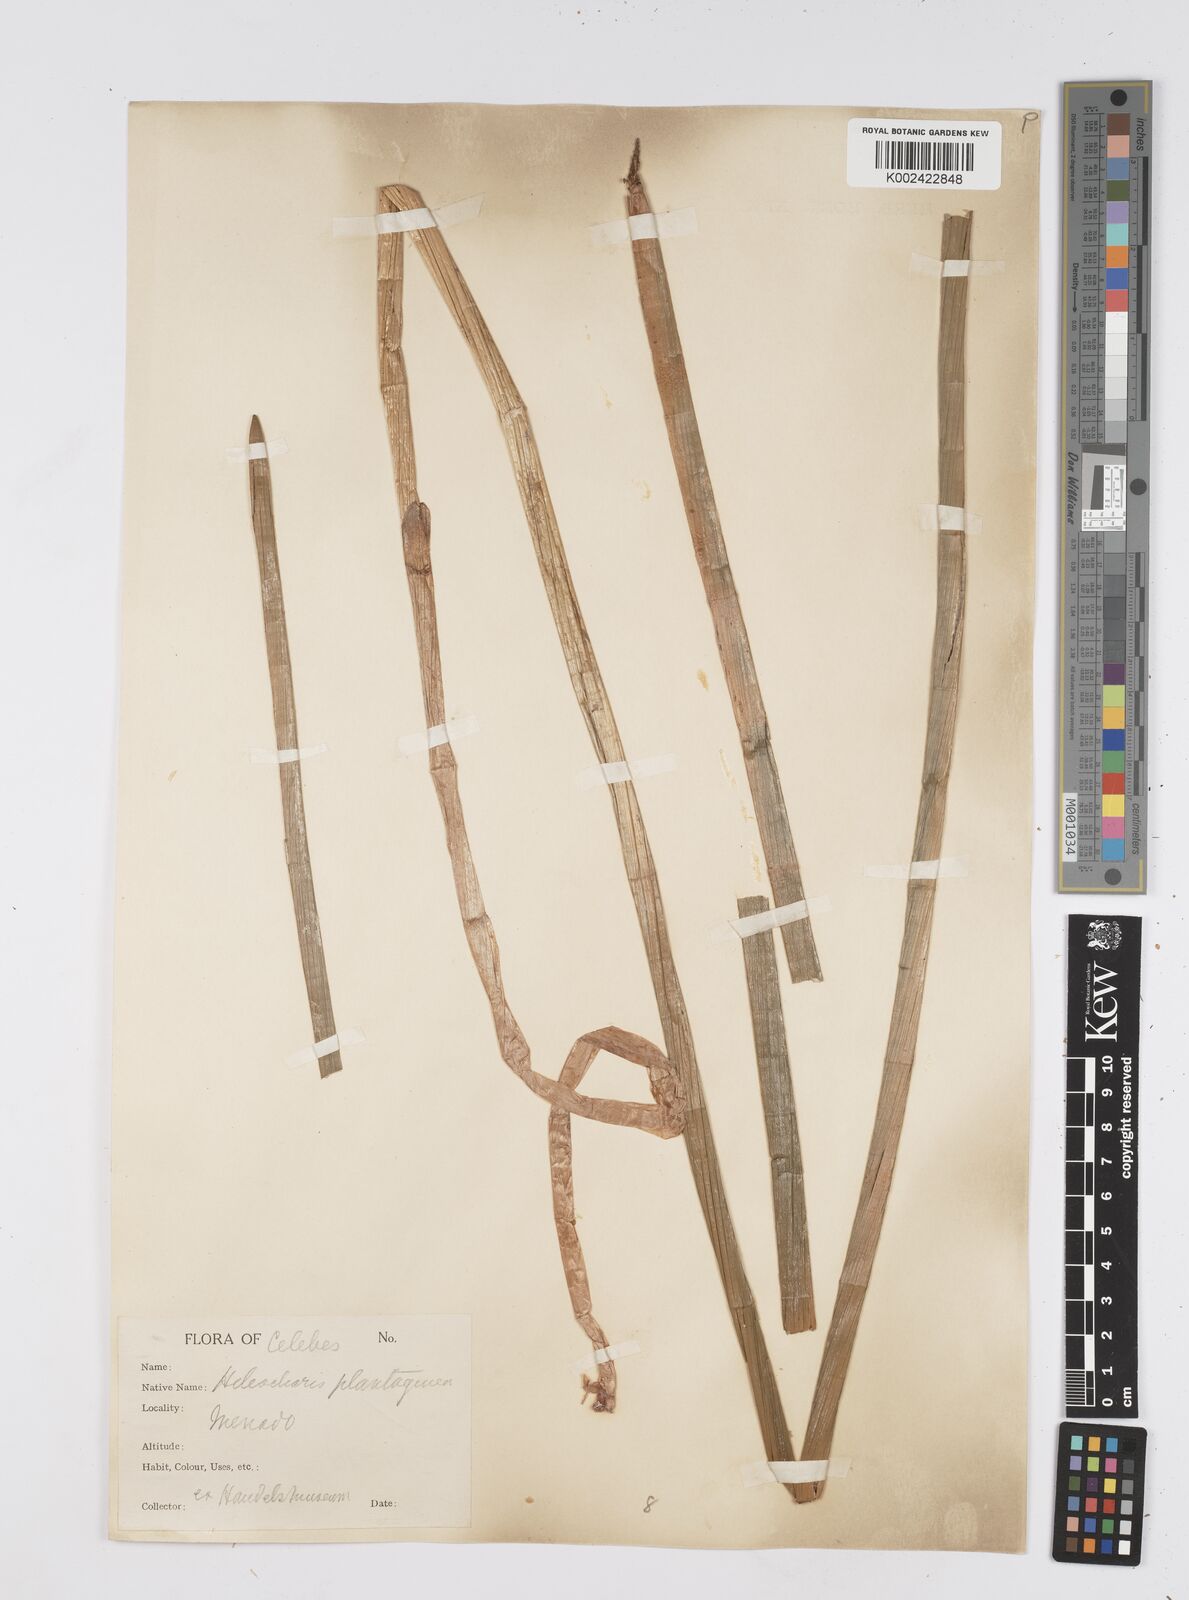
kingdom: Plantae
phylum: Tracheophyta
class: Liliopsida
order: Poales
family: Cyperaceae
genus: Eleocharis
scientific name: Eleocharis dulcis
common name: Chinese water chestnut
